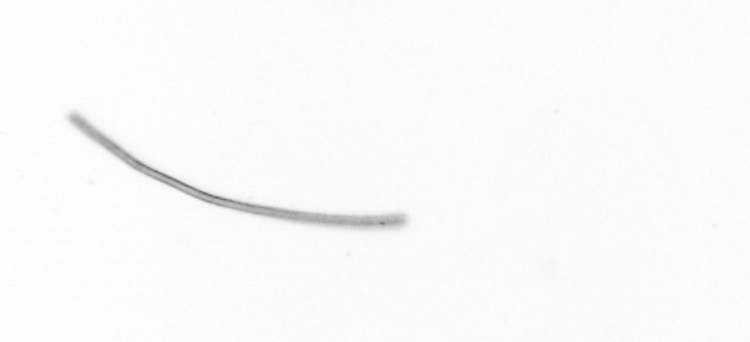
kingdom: Chromista
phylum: Ochrophyta
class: Bacillariophyceae
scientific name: Bacillariophyceae
